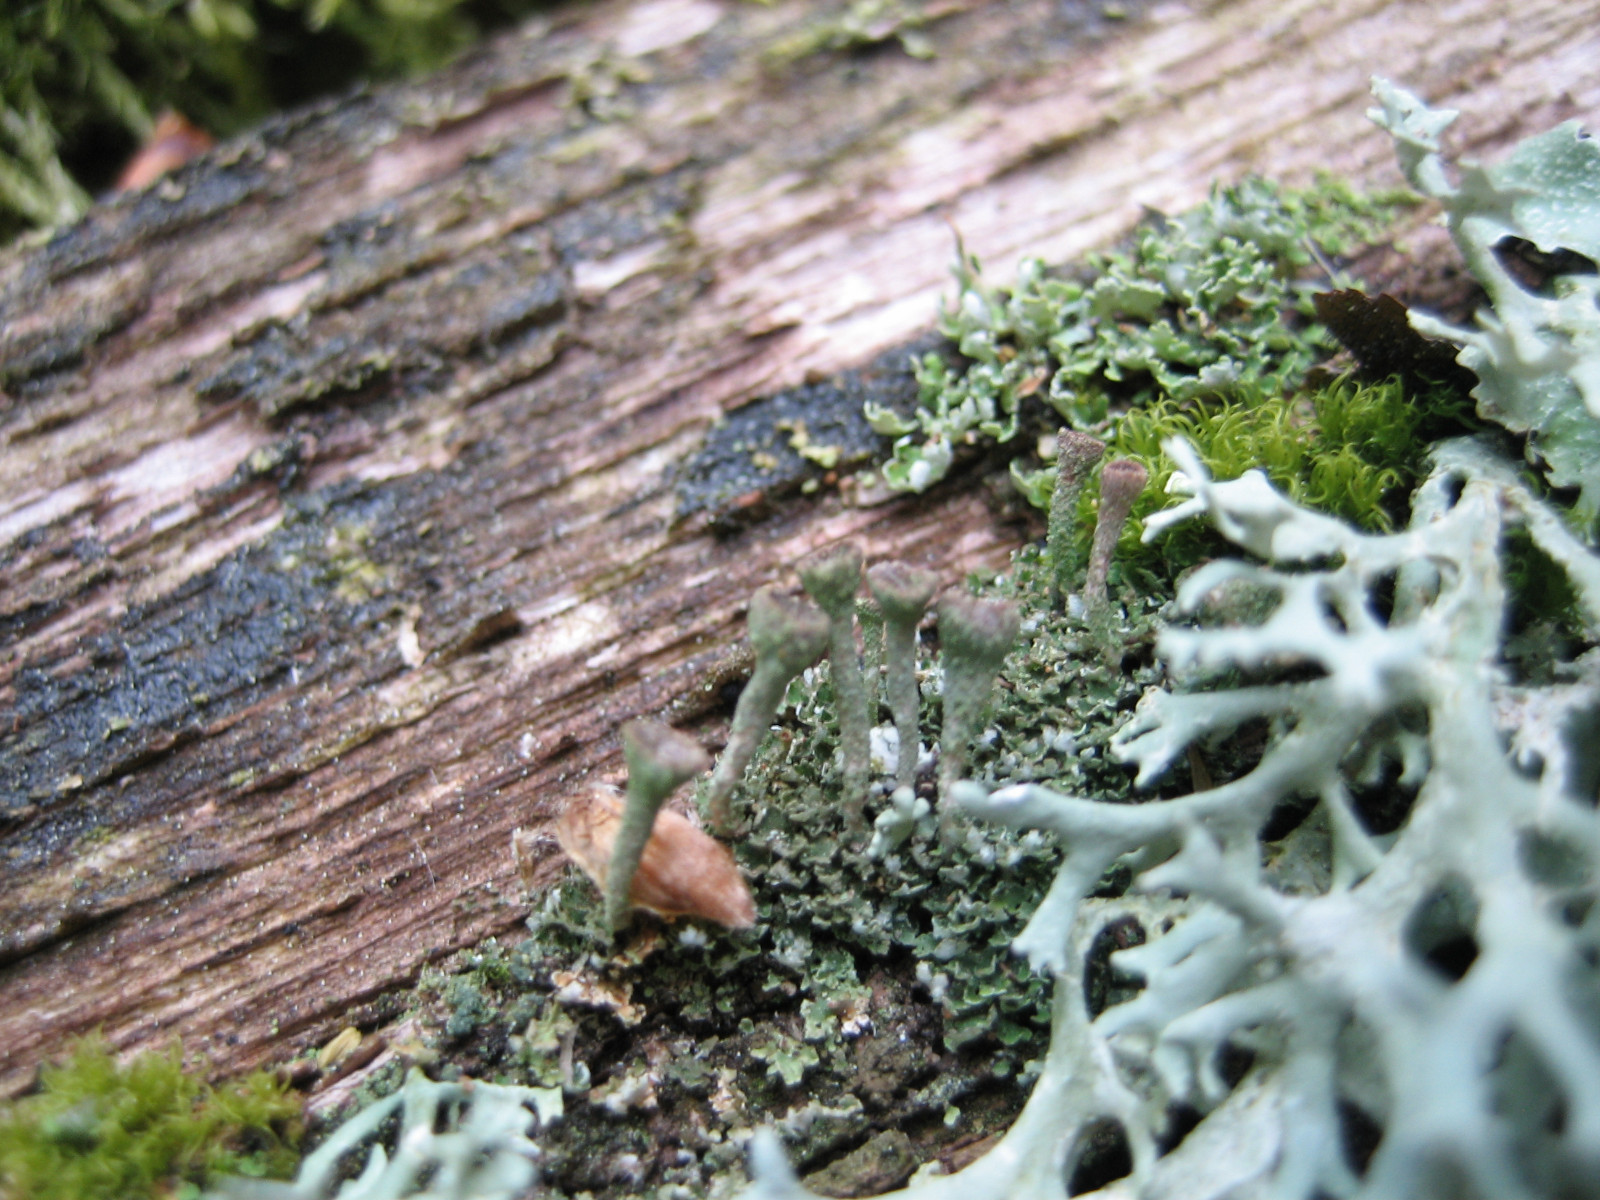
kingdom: Fungi
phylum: Ascomycota
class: Lecanoromycetes
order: Lecanorales
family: Cladoniaceae
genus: Cladonia
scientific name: Cladonia
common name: brungrøn bægerlav
